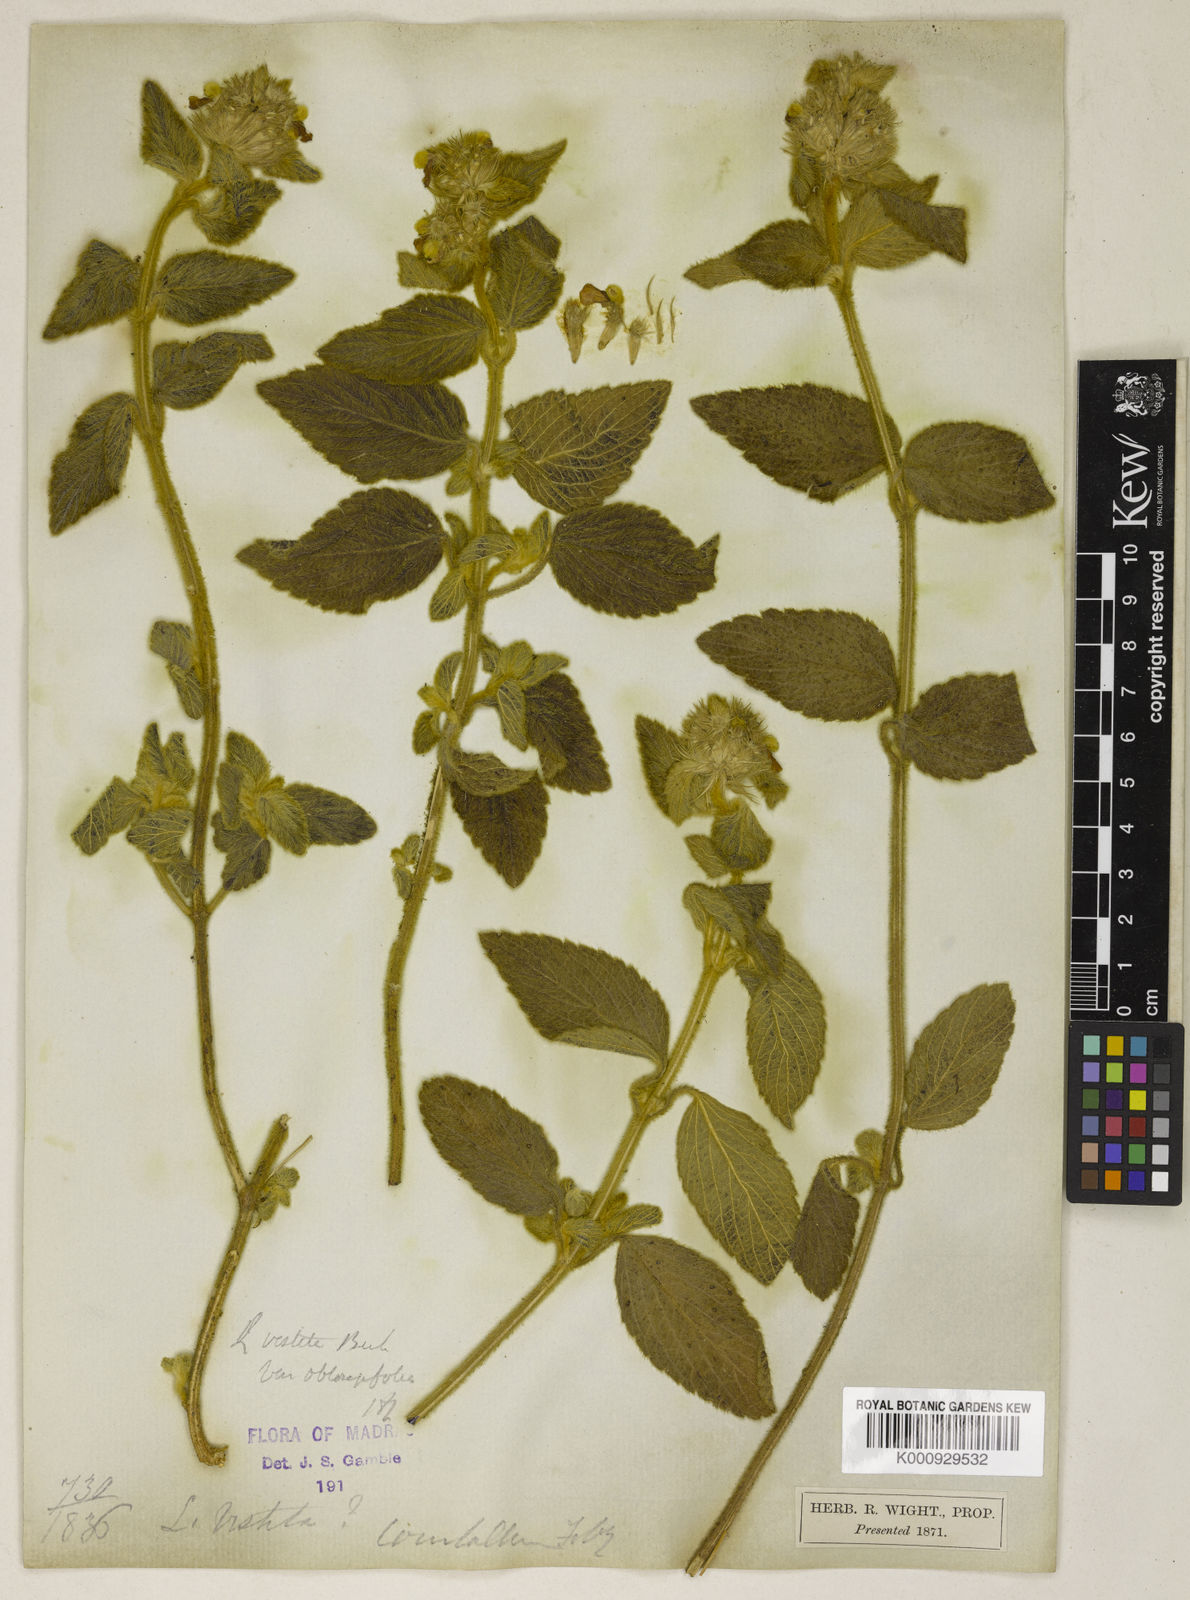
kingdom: Plantae
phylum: Tracheophyta
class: Magnoliopsida
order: Lamiales
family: Lamiaceae
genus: Leucas
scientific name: Leucas vestita
